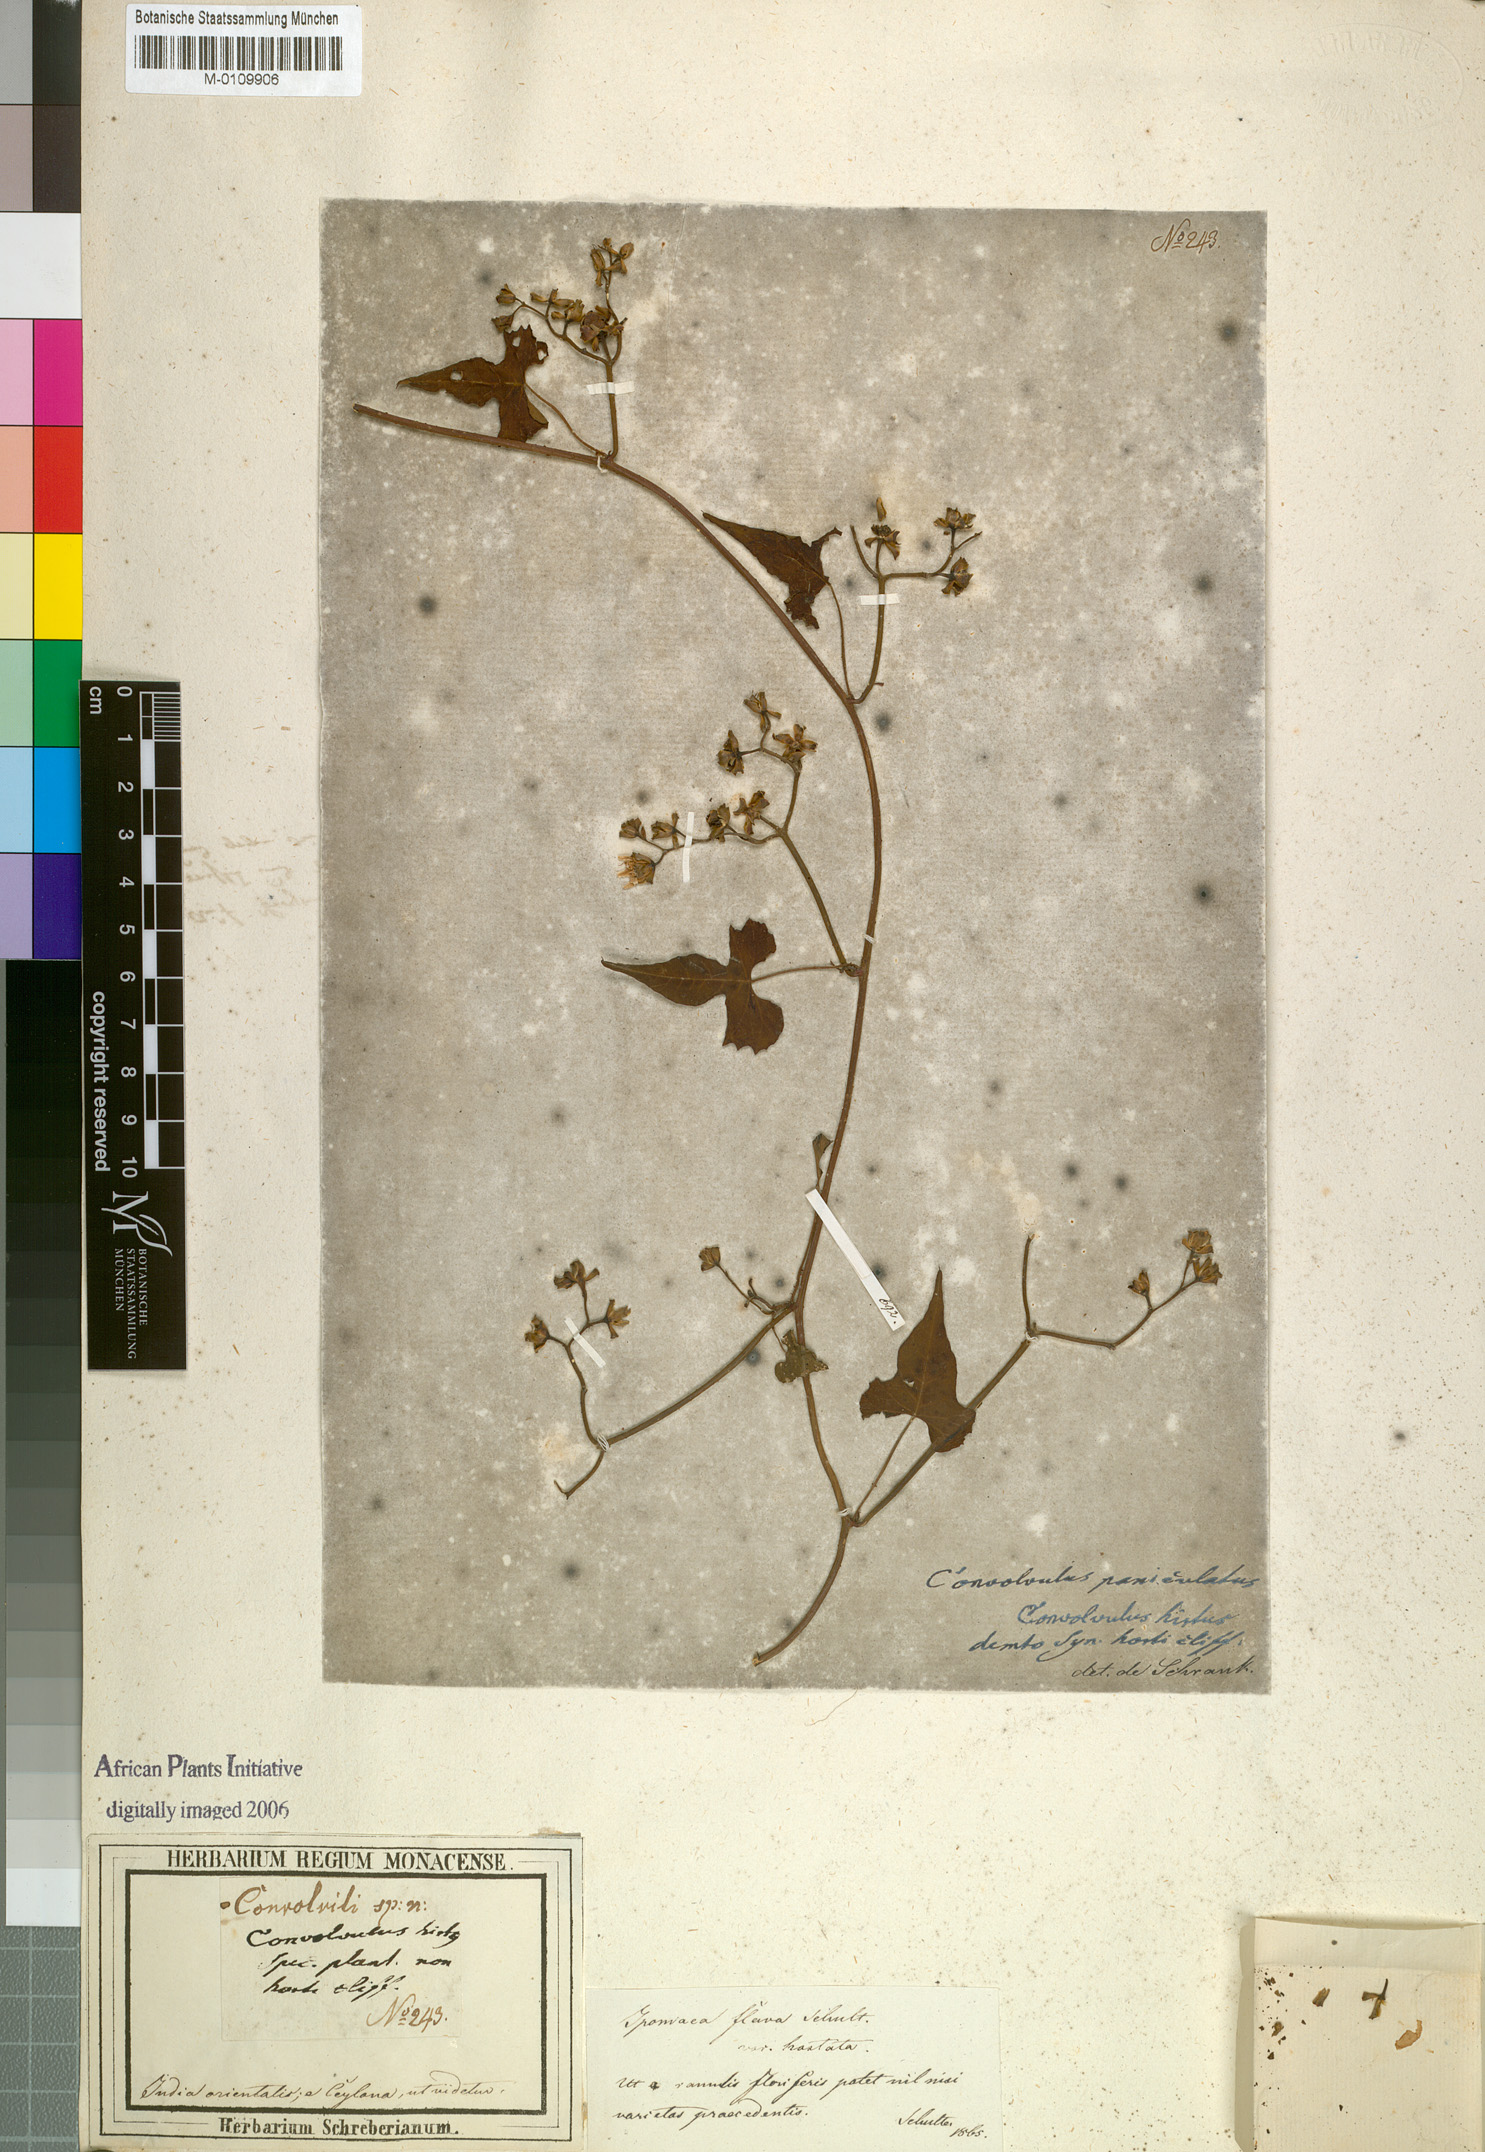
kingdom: Plantae
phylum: Tracheophyta
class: Magnoliopsida
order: Solanales
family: Convolvulaceae
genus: Merremia
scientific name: Merremia hederacea
